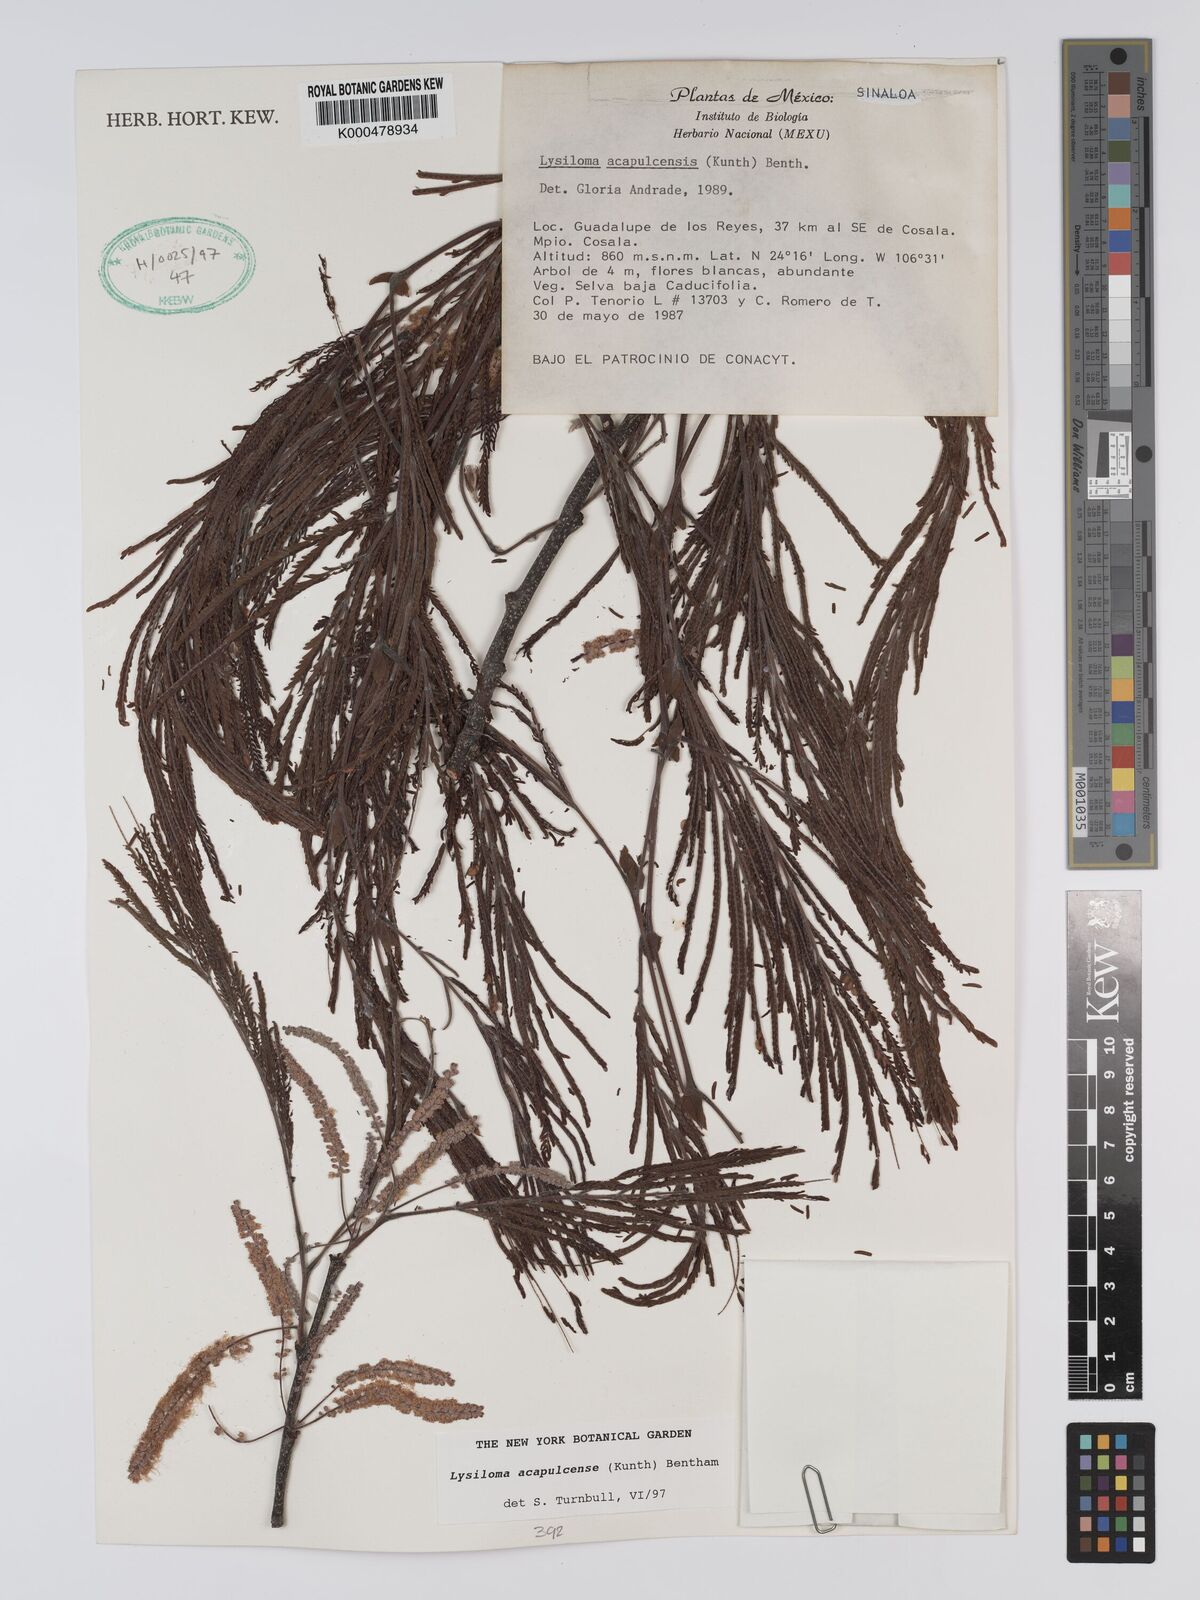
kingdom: Plantae
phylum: Tracheophyta
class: Magnoliopsida
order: Fabales
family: Fabaceae
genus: Lysiloma
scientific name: Lysiloma
